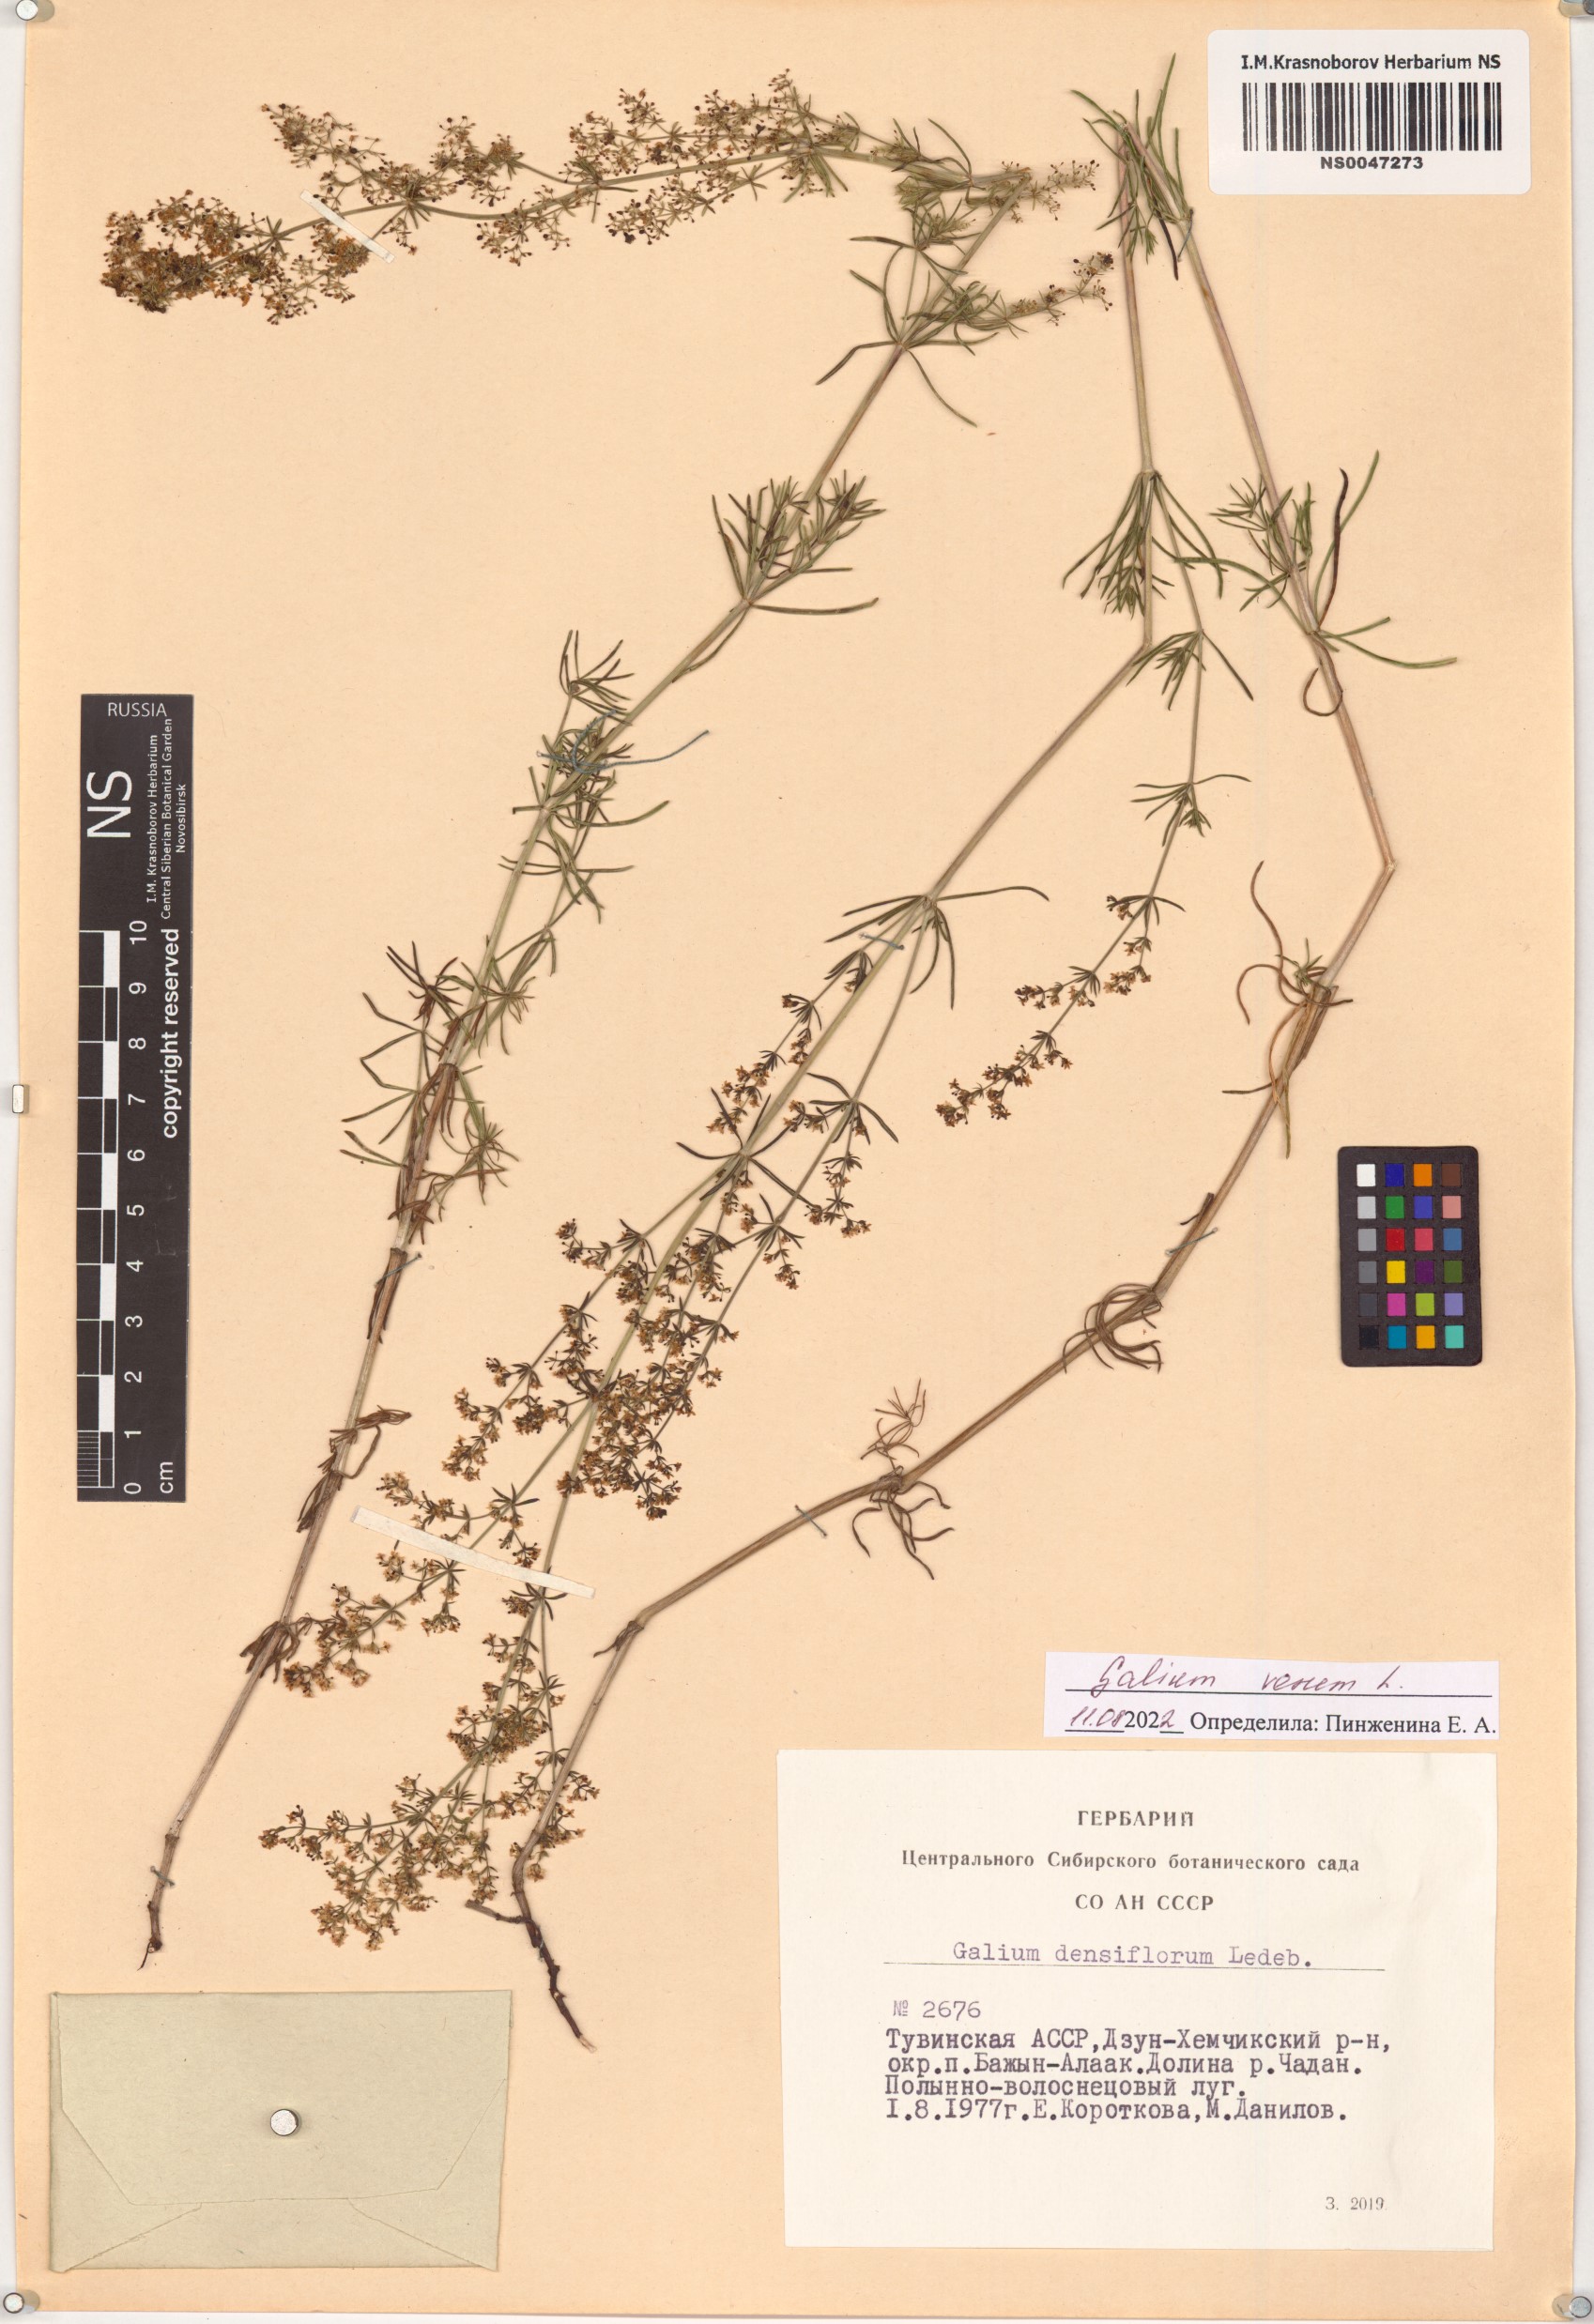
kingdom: Plantae
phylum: Tracheophyta
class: Magnoliopsida
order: Gentianales
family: Rubiaceae
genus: Galium
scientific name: Galium verum
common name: Lady's bedstraw
